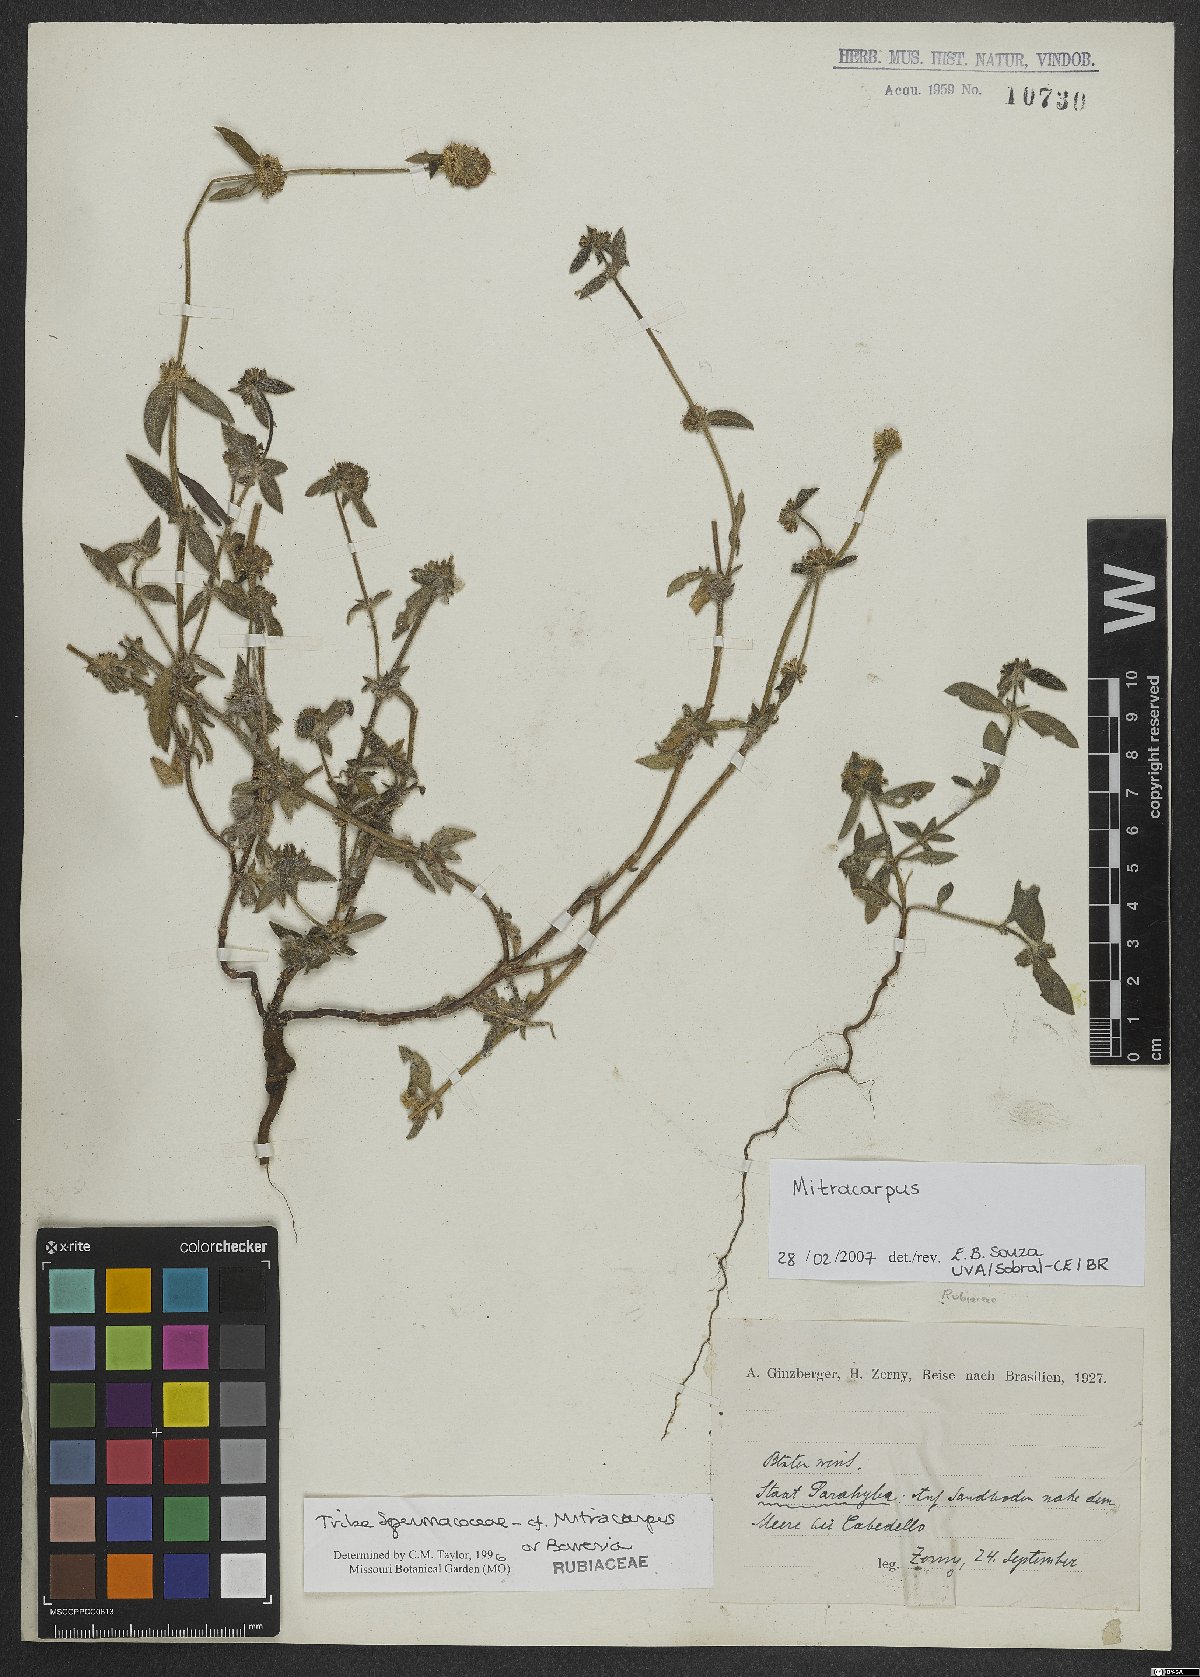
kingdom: Plantae
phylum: Tracheophyta
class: Magnoliopsida
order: Gentianales
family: Rubiaceae
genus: Mitracarpus
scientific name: Mitracarpus
